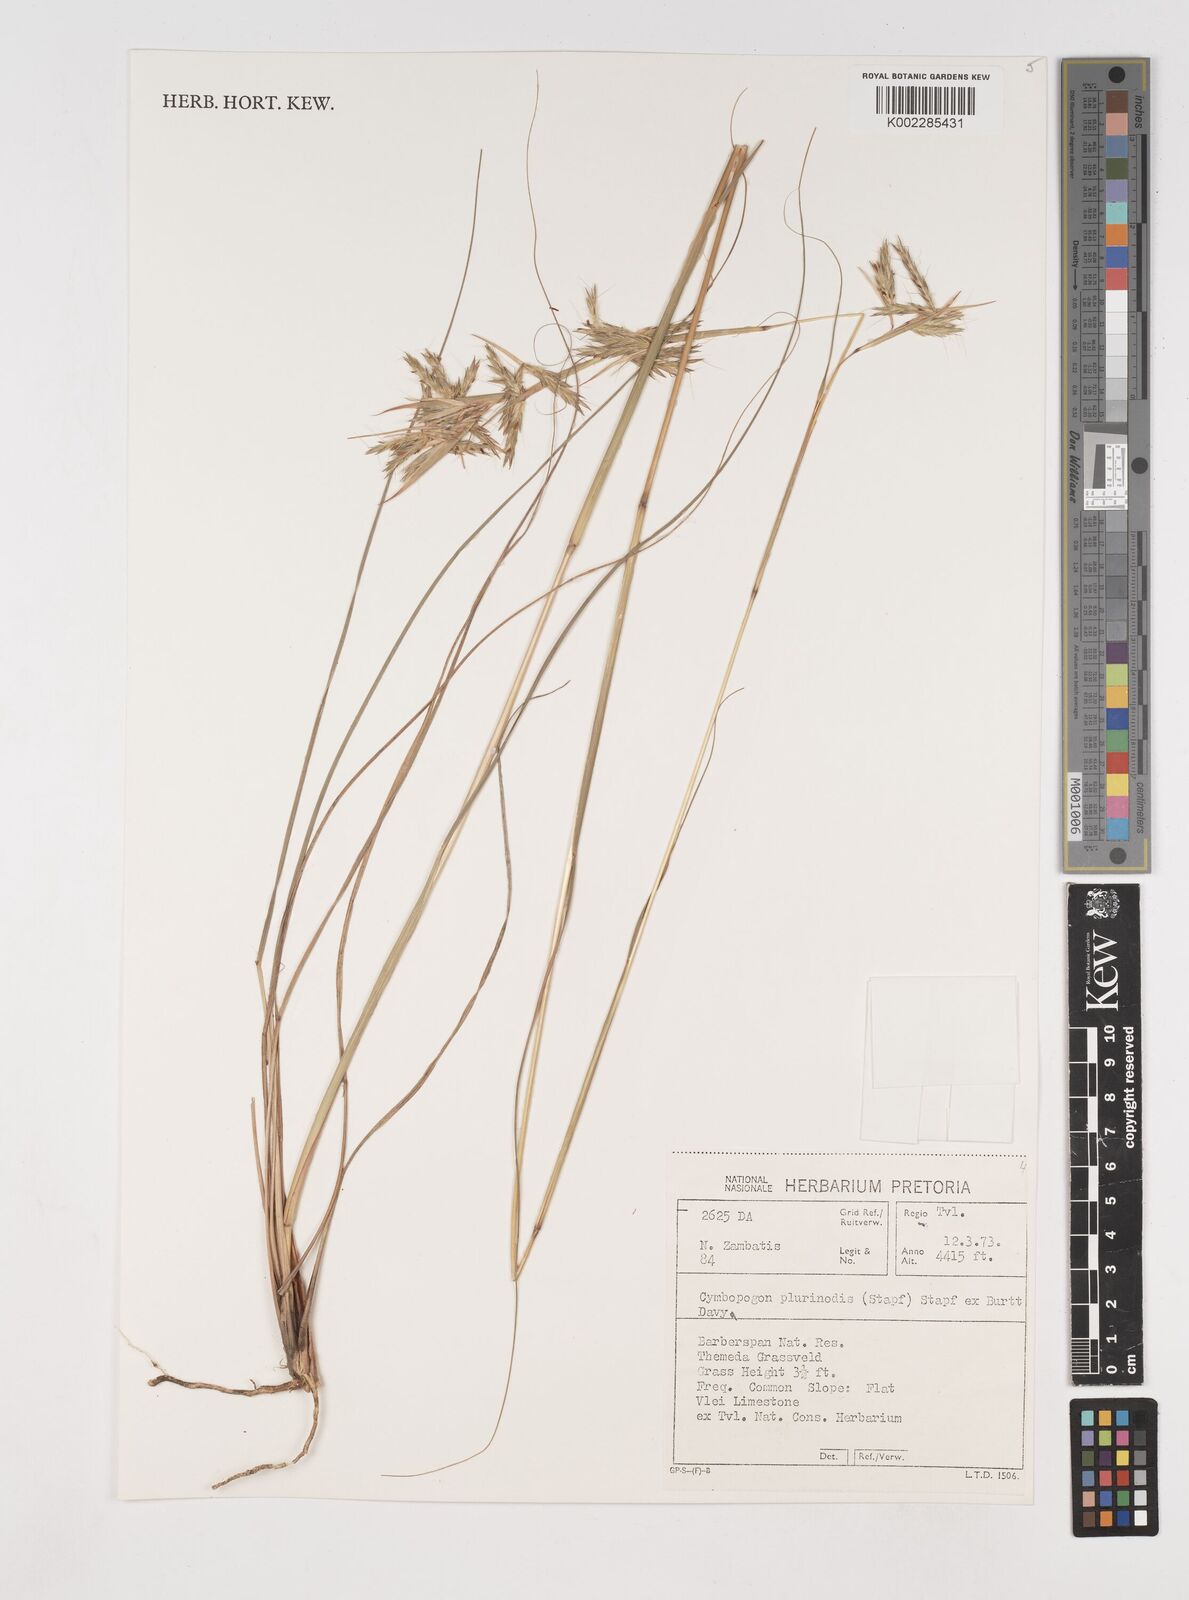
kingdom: Plantae
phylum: Tracheophyta
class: Liliopsida
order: Poales
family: Poaceae
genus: Cymbopogon
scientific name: Cymbopogon
